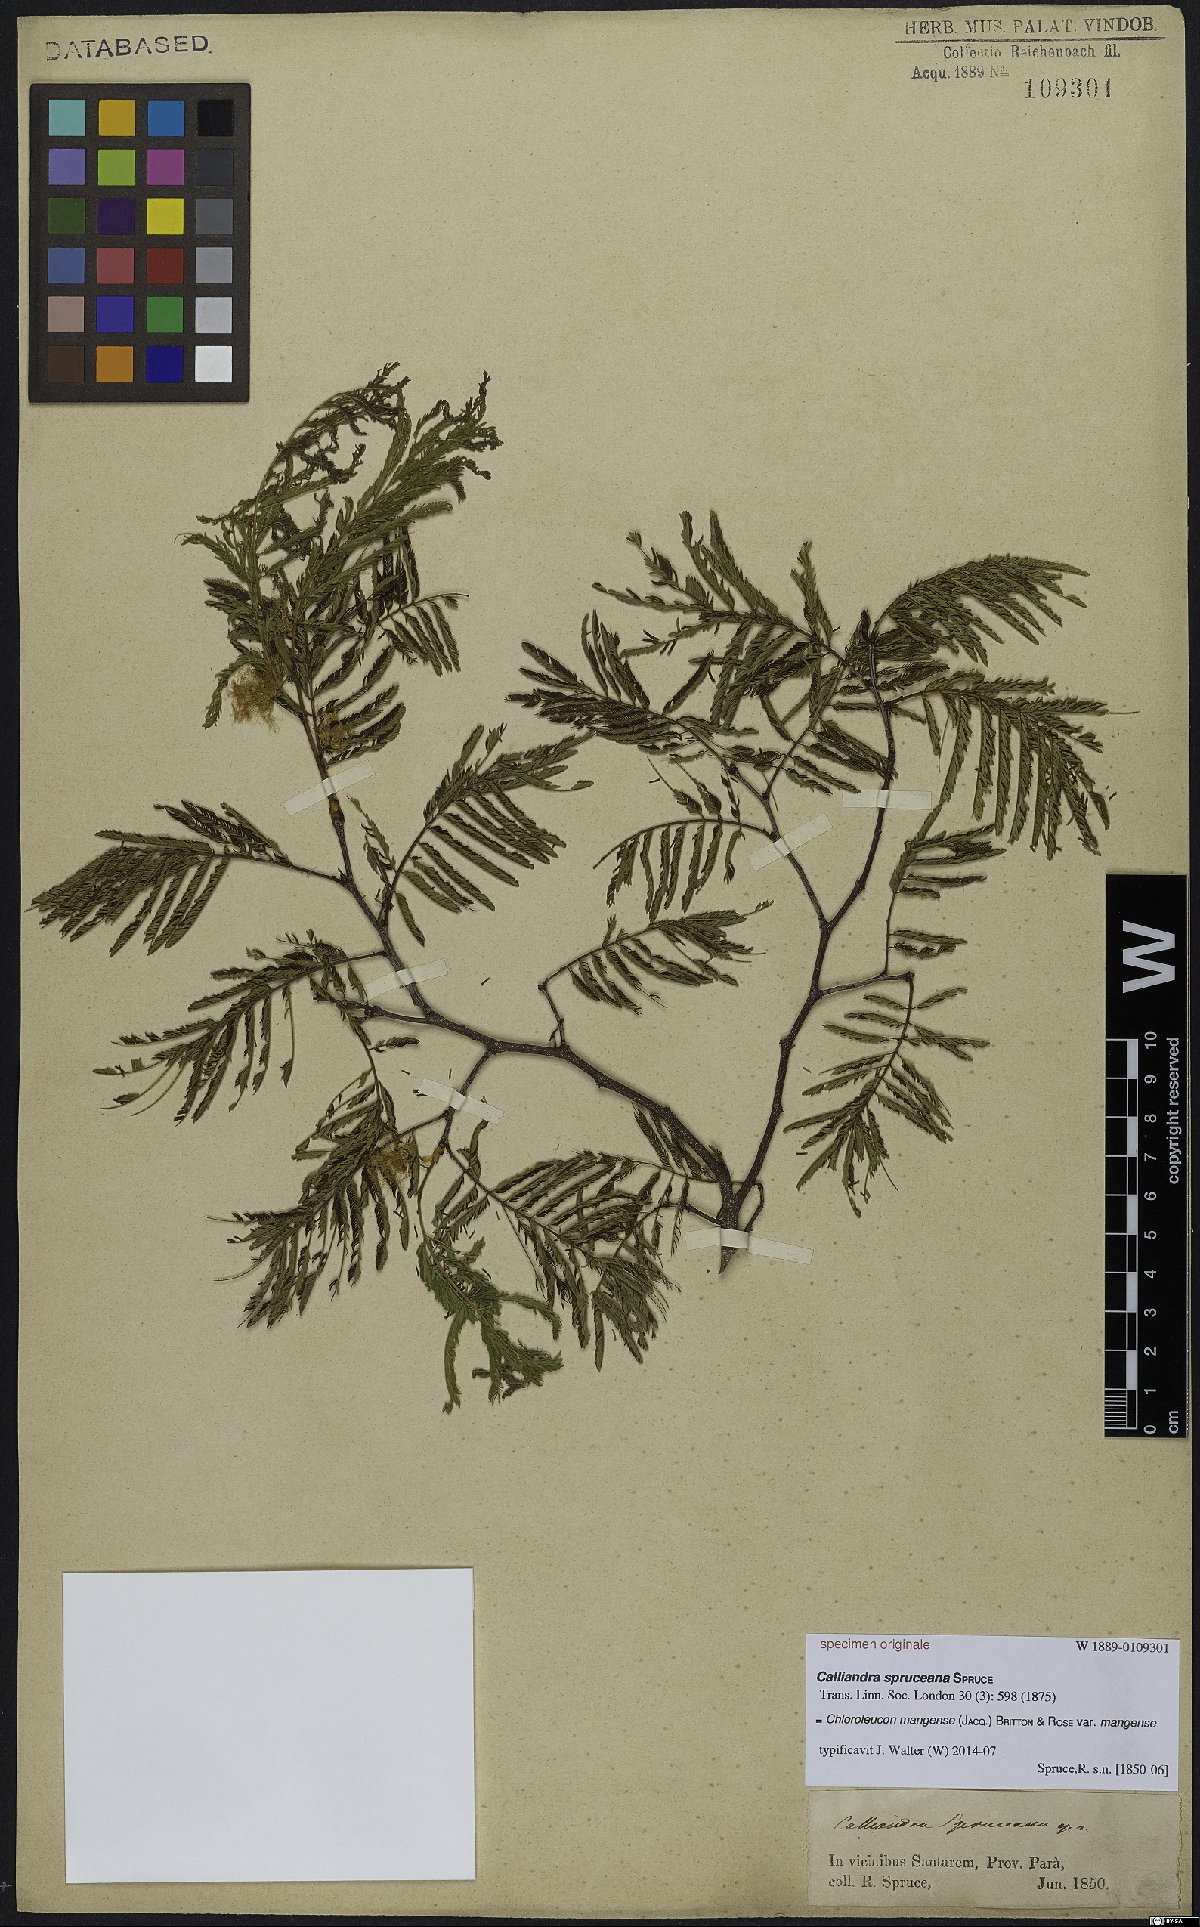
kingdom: Plantae
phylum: Tracheophyta
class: Magnoliopsida
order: Fabales
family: Fabaceae
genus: Chloroleucon
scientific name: Chloroleucon mangense
